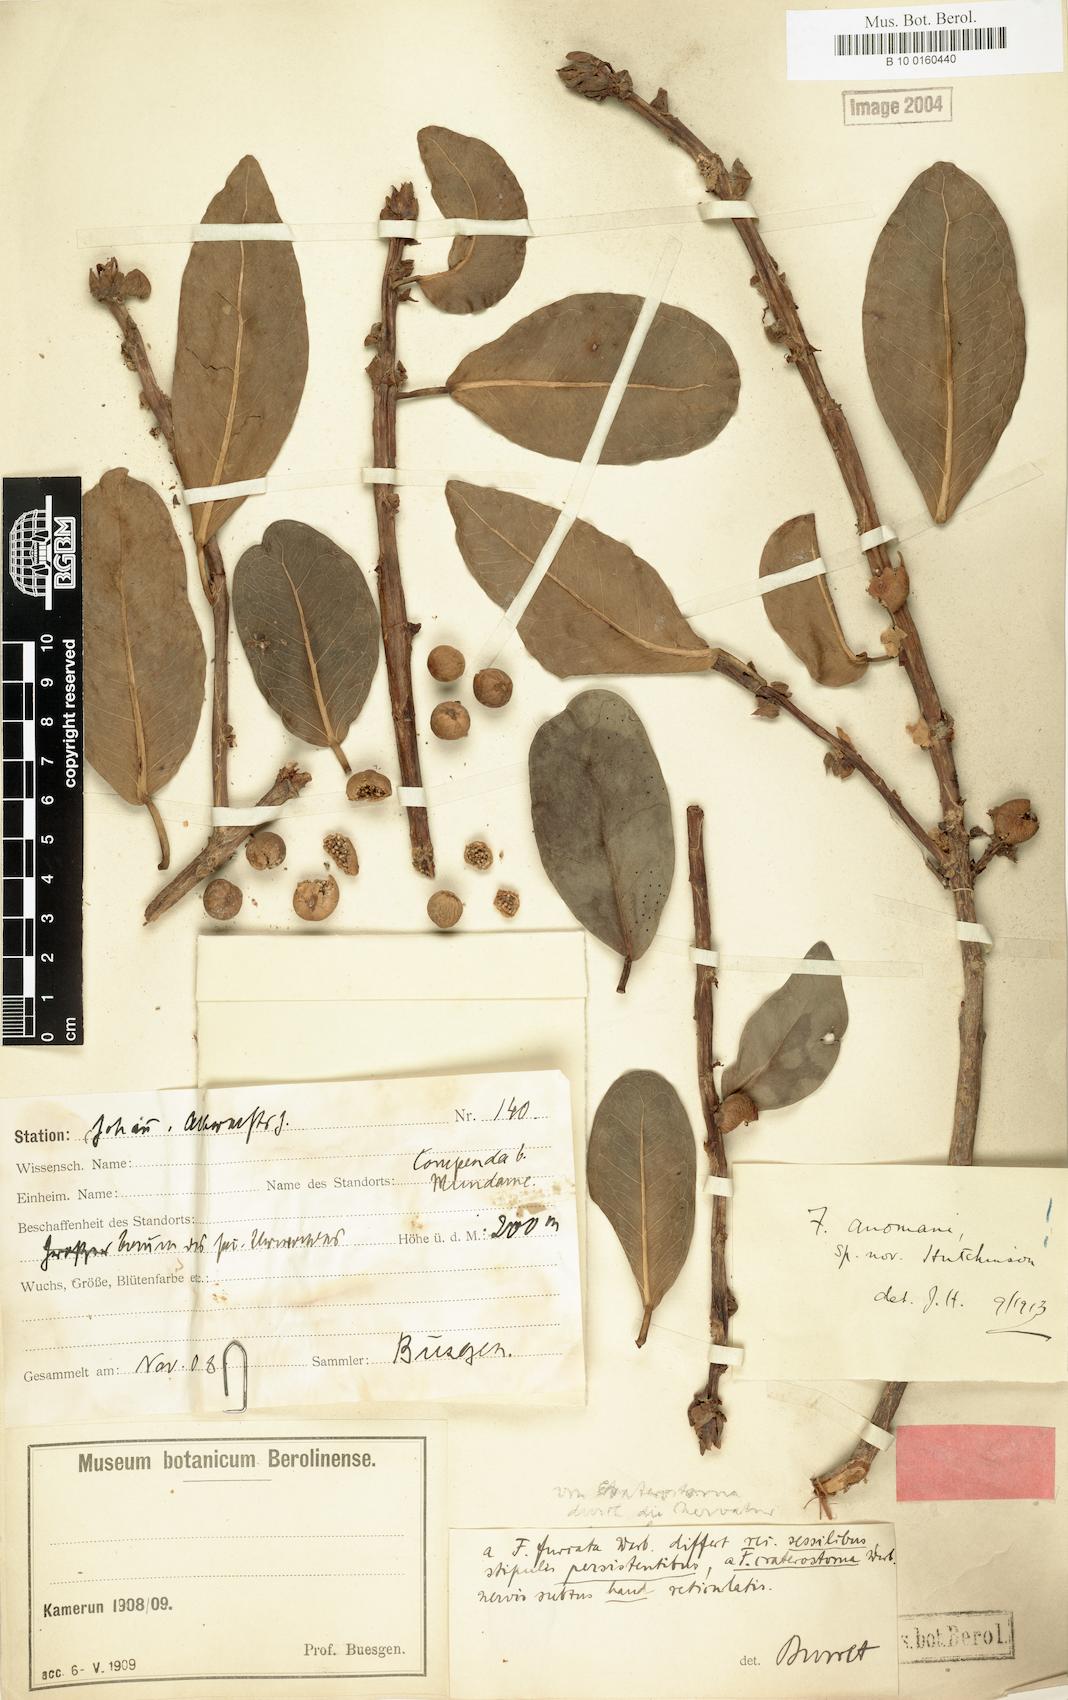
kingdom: Plantae
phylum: Tracheophyta
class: Magnoliopsida
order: Rosales
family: Moraceae
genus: Ficus
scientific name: Ficus craterostoma
